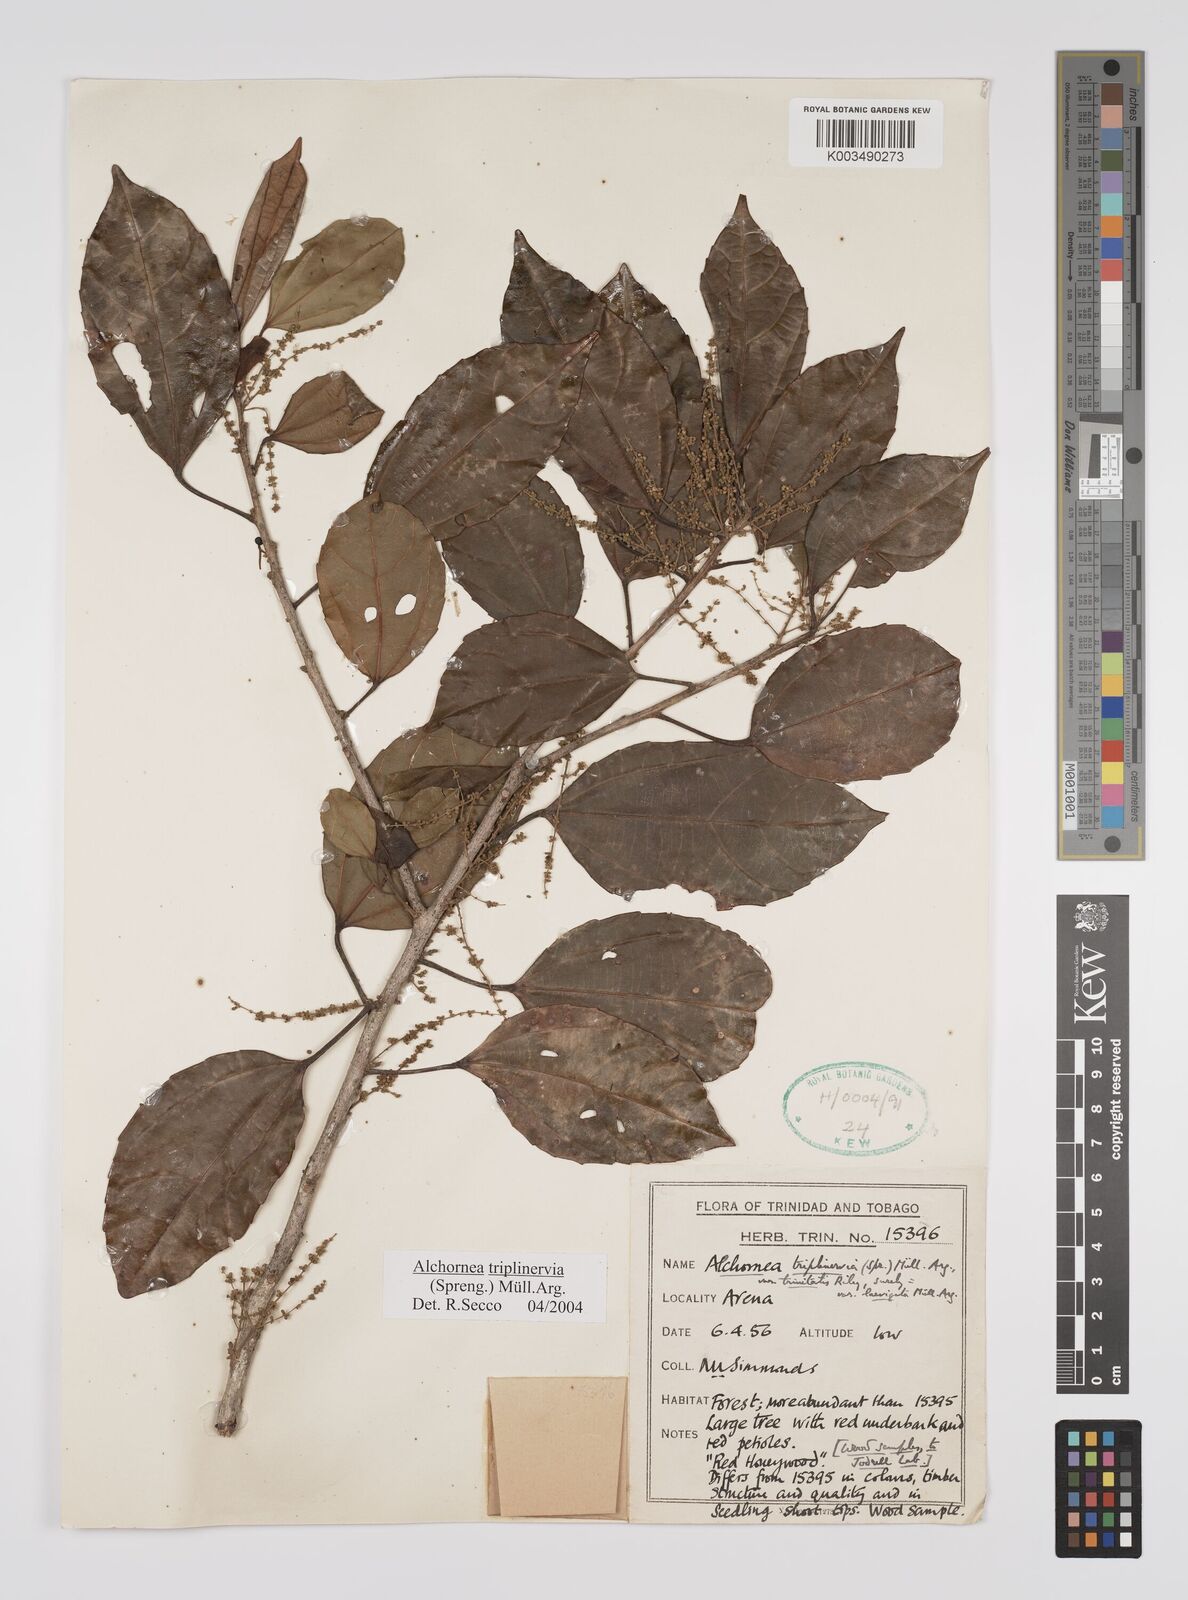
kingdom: Plantae
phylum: Tracheophyta
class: Magnoliopsida
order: Malpighiales
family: Euphorbiaceae
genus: Alchornea
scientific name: Alchornea latifolia
